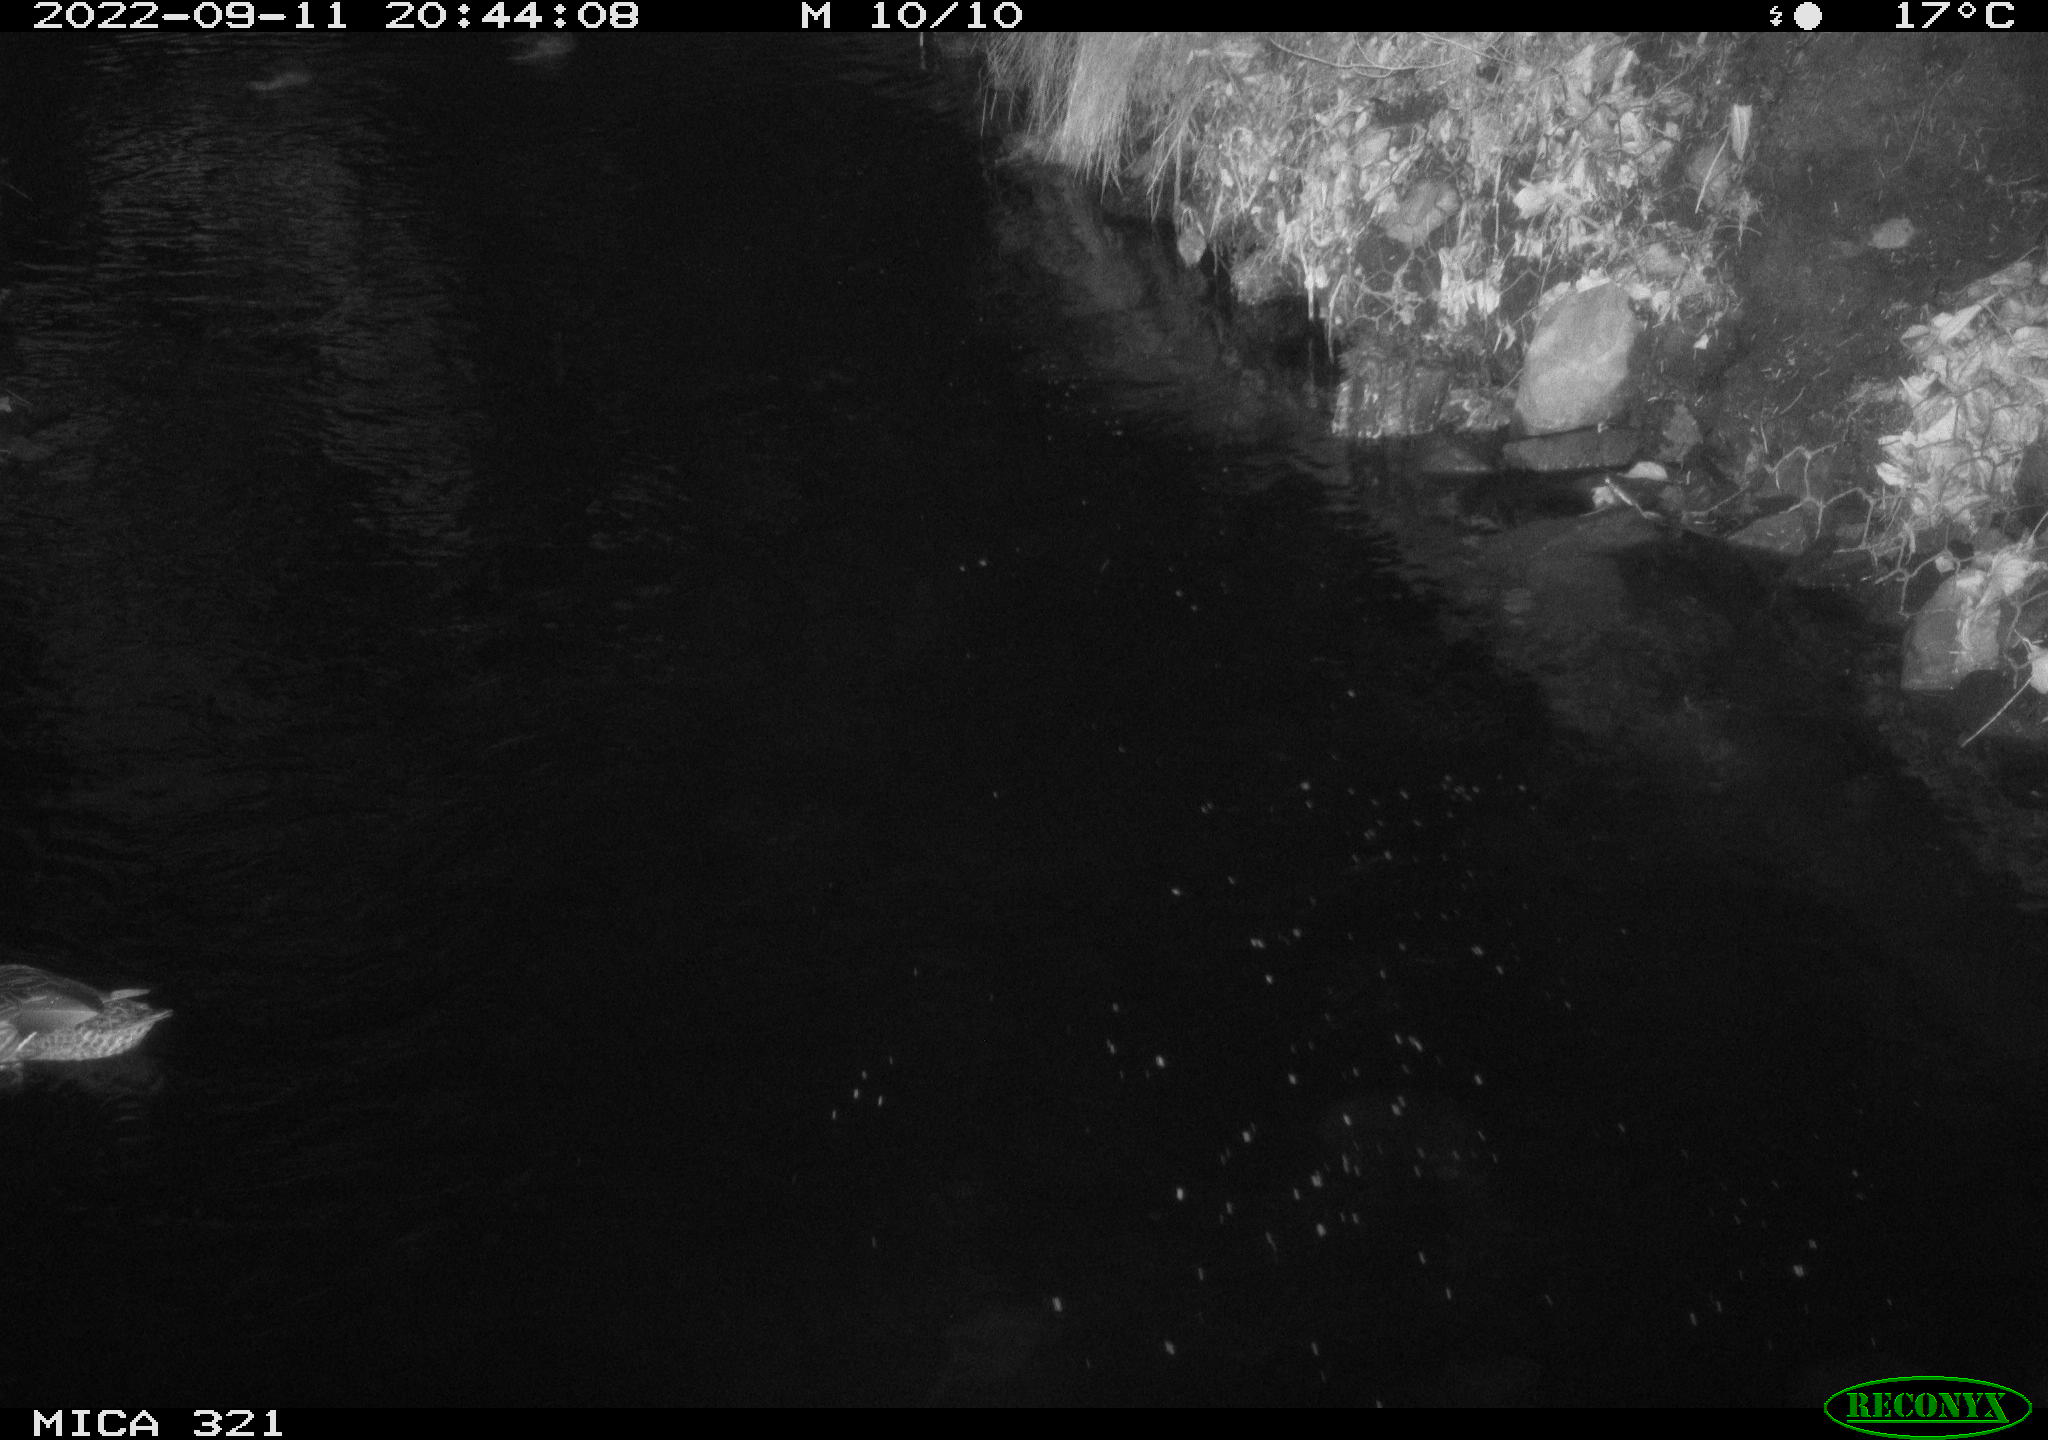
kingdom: Animalia
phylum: Chordata
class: Aves
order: Anseriformes
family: Anatidae
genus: Anas
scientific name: Anas
